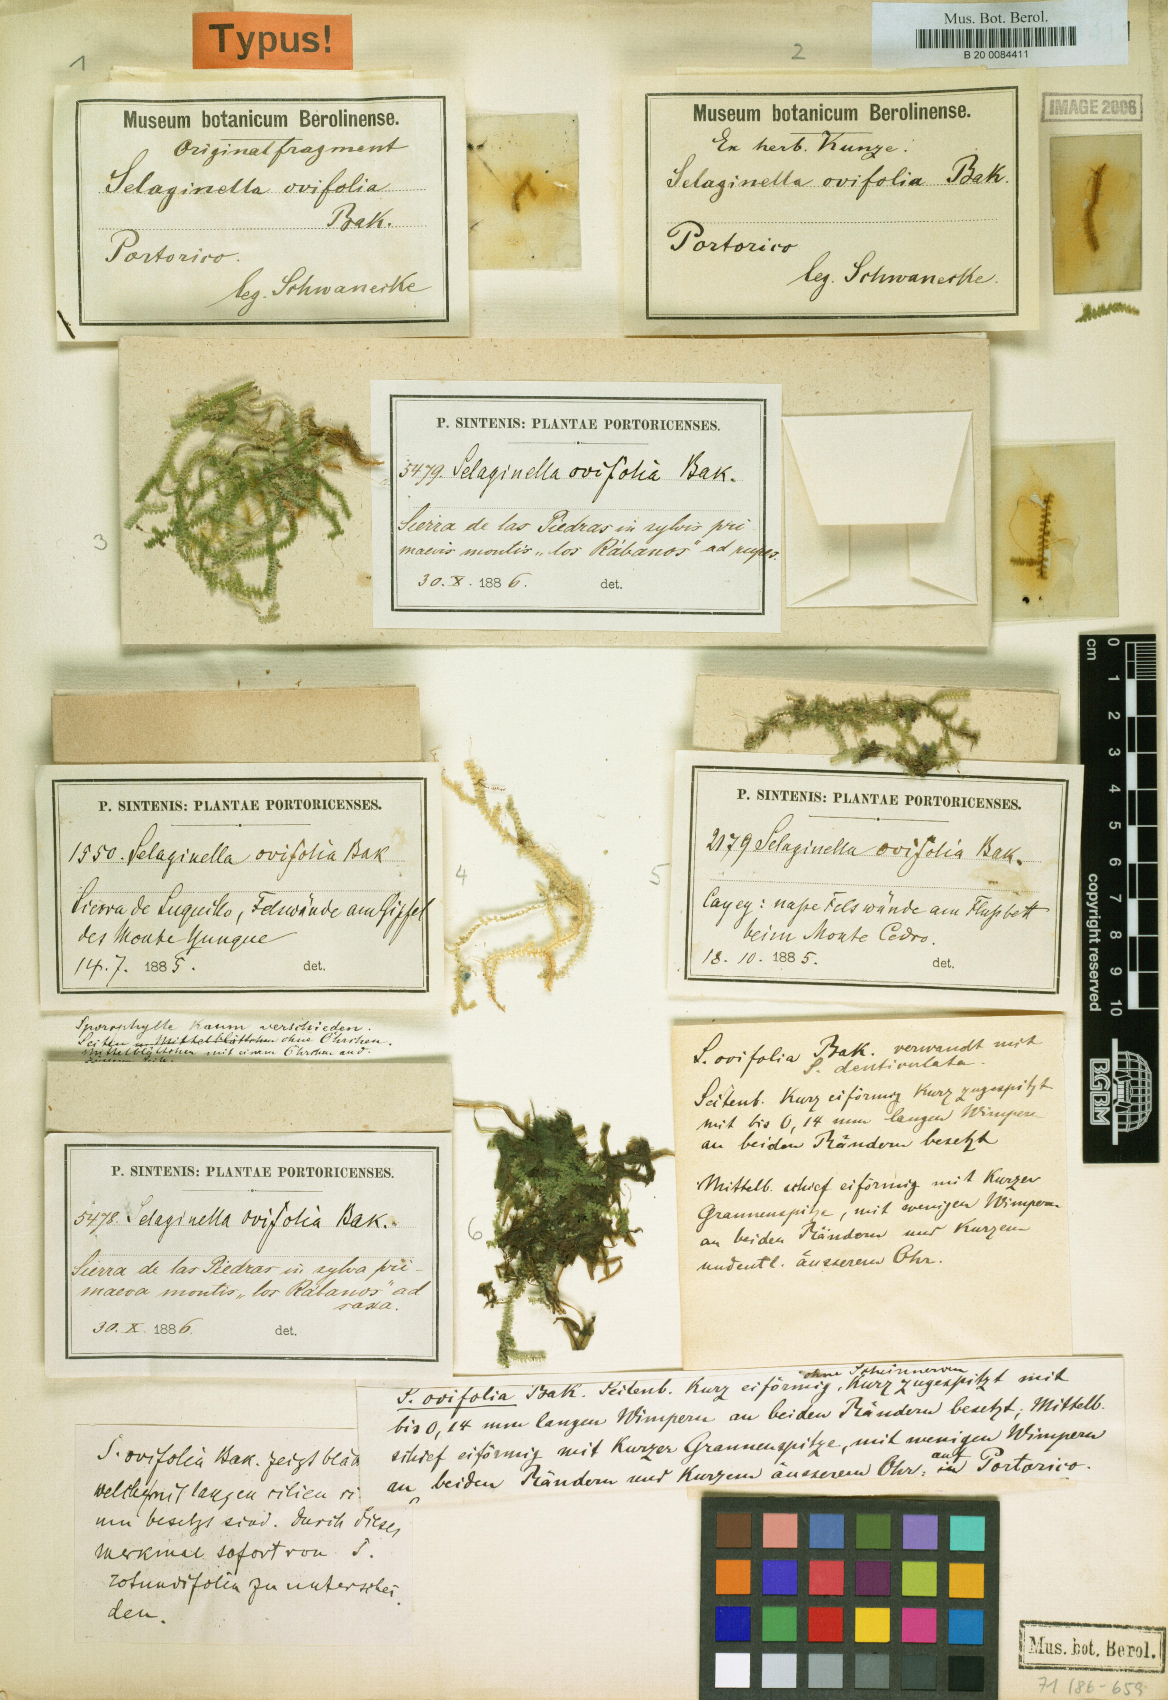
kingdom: Plantae
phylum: Tracheophyta
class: Lycopodiopsida
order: Selaginellales
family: Selaginellaceae
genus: Selaginella
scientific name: Selaginella ovifolia
